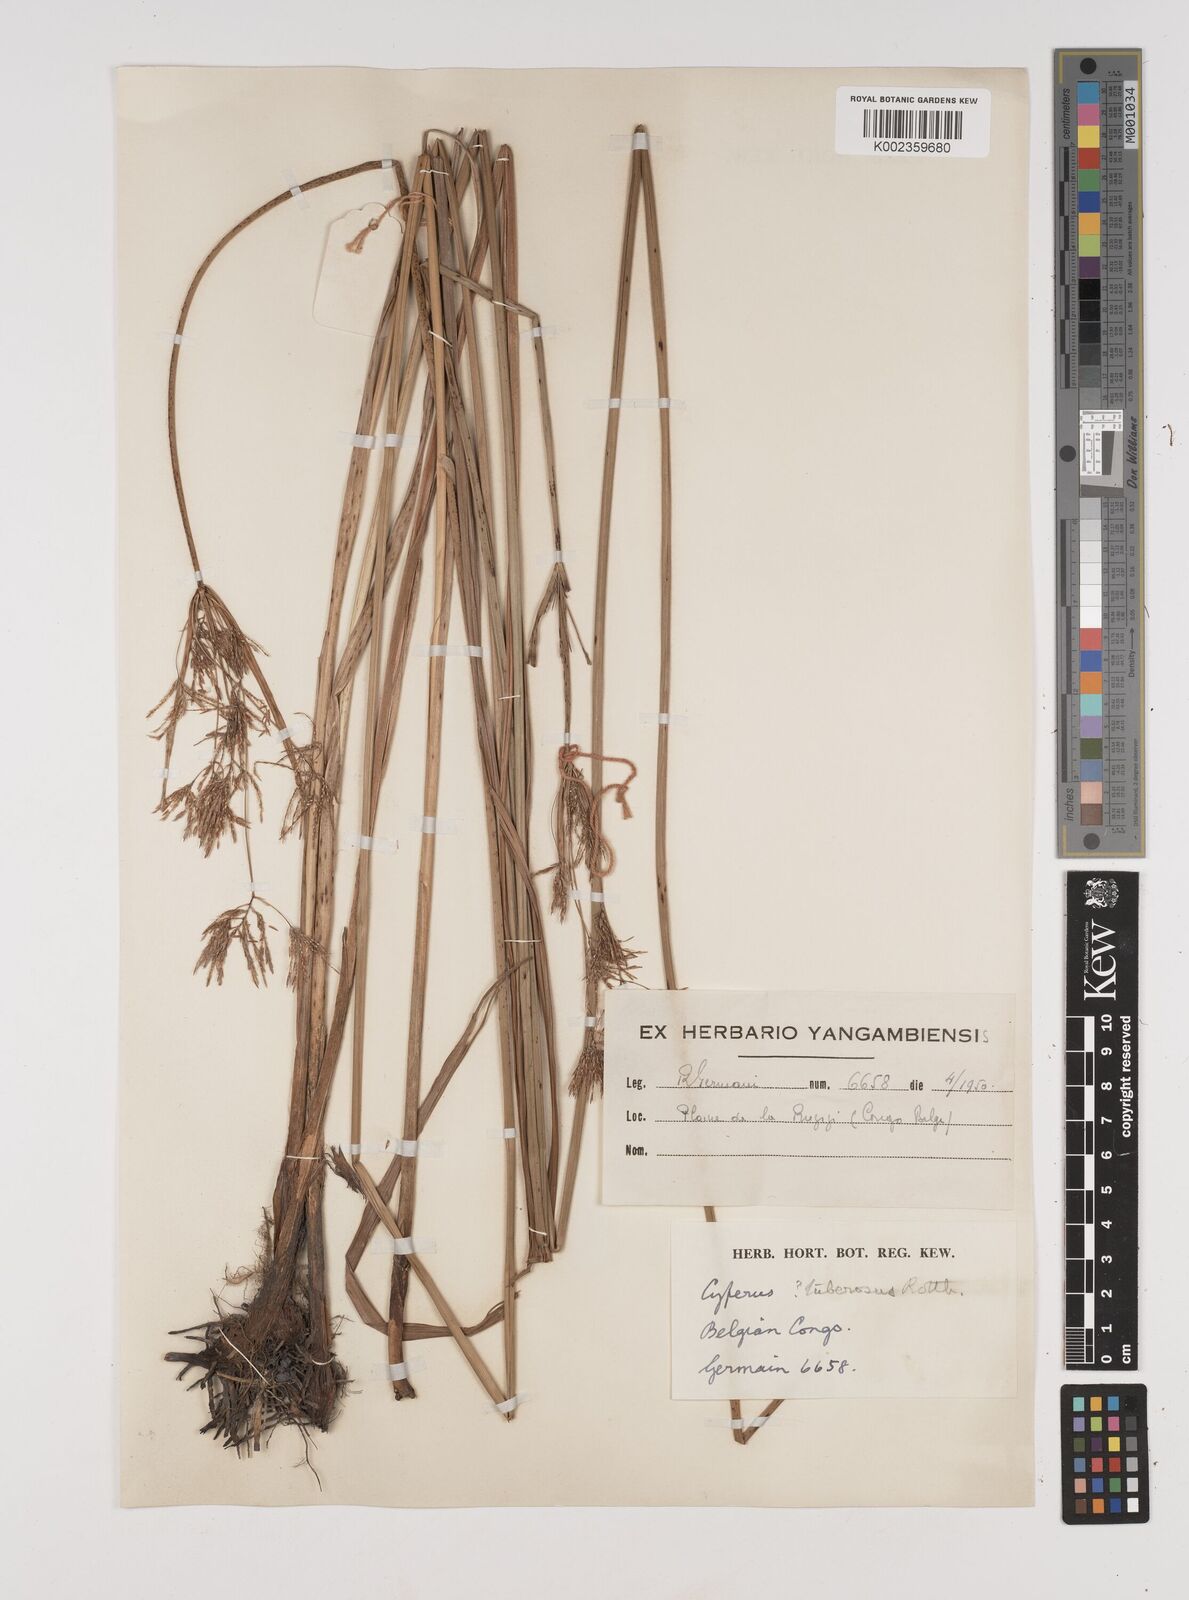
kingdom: Plantae
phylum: Tracheophyta
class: Liliopsida
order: Poales
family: Cyperaceae
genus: Cyperus
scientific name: Cyperus
